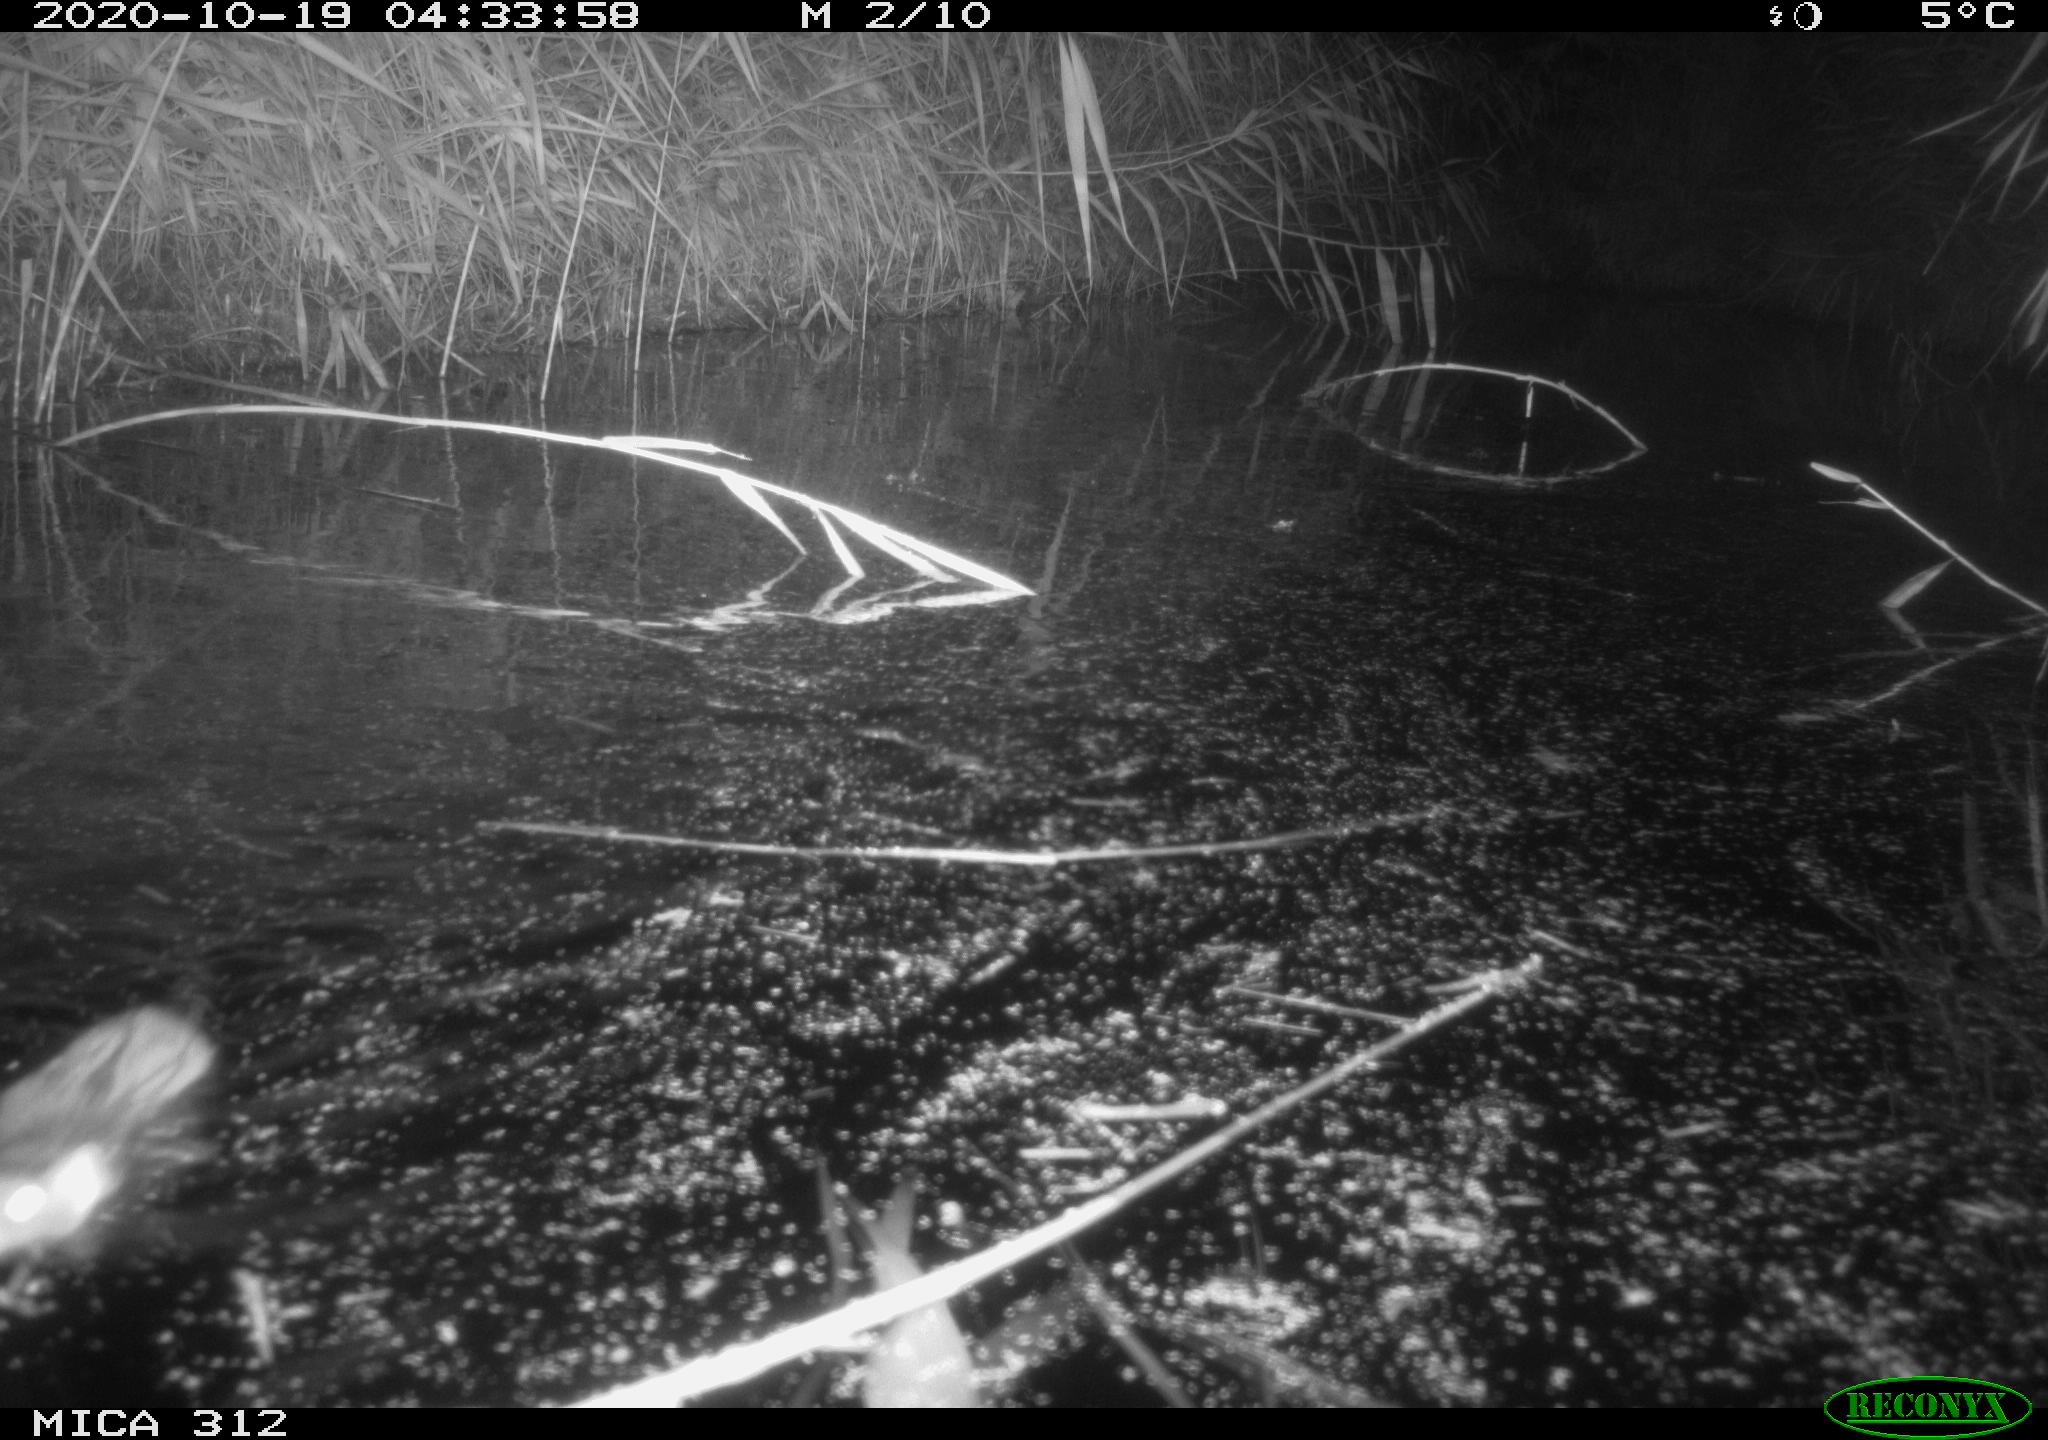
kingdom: Animalia
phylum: Chordata
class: Mammalia
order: Rodentia
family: Muridae
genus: Rattus
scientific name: Rattus norvegicus
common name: Brown rat
